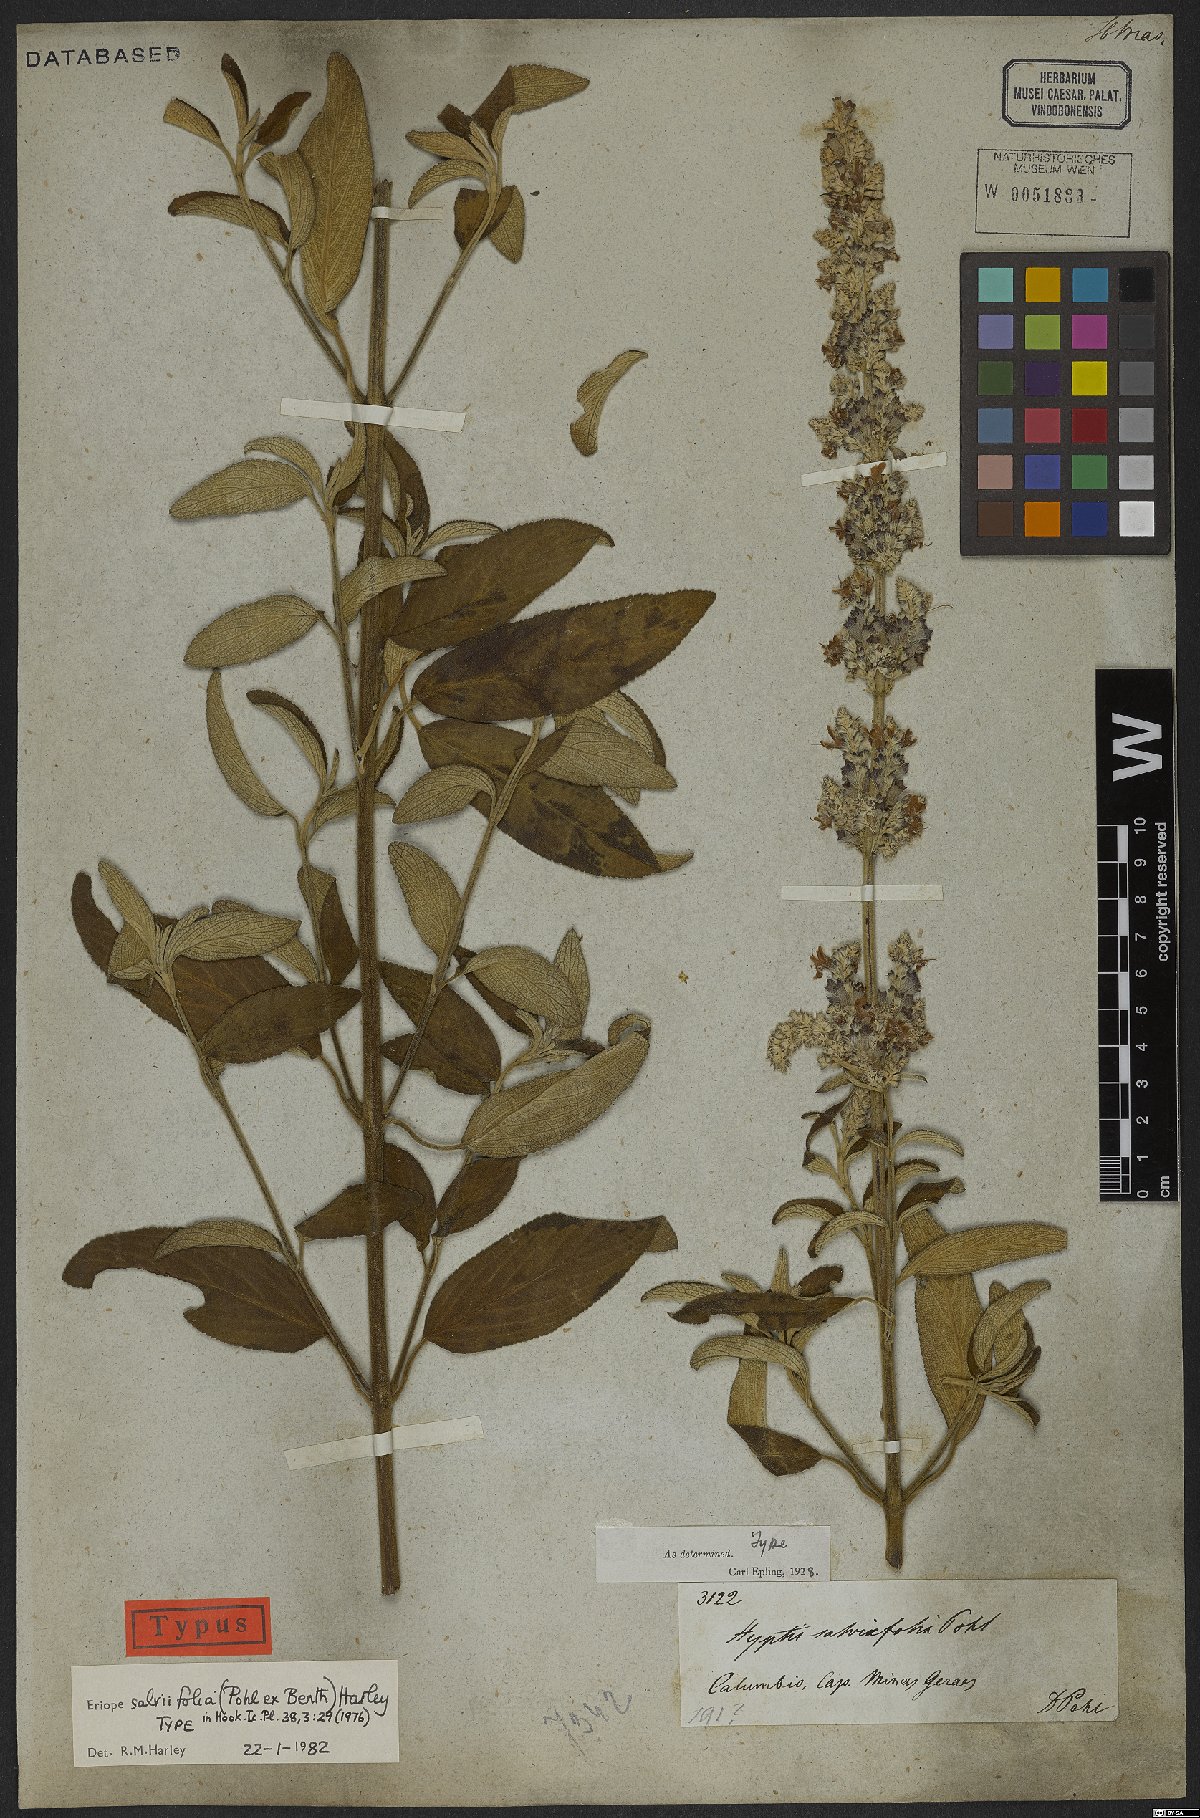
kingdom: Plantae
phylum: Tracheophyta
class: Magnoliopsida
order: Lamiales
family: Lamiaceae
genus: Eriope
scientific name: Eriope salviifolia
